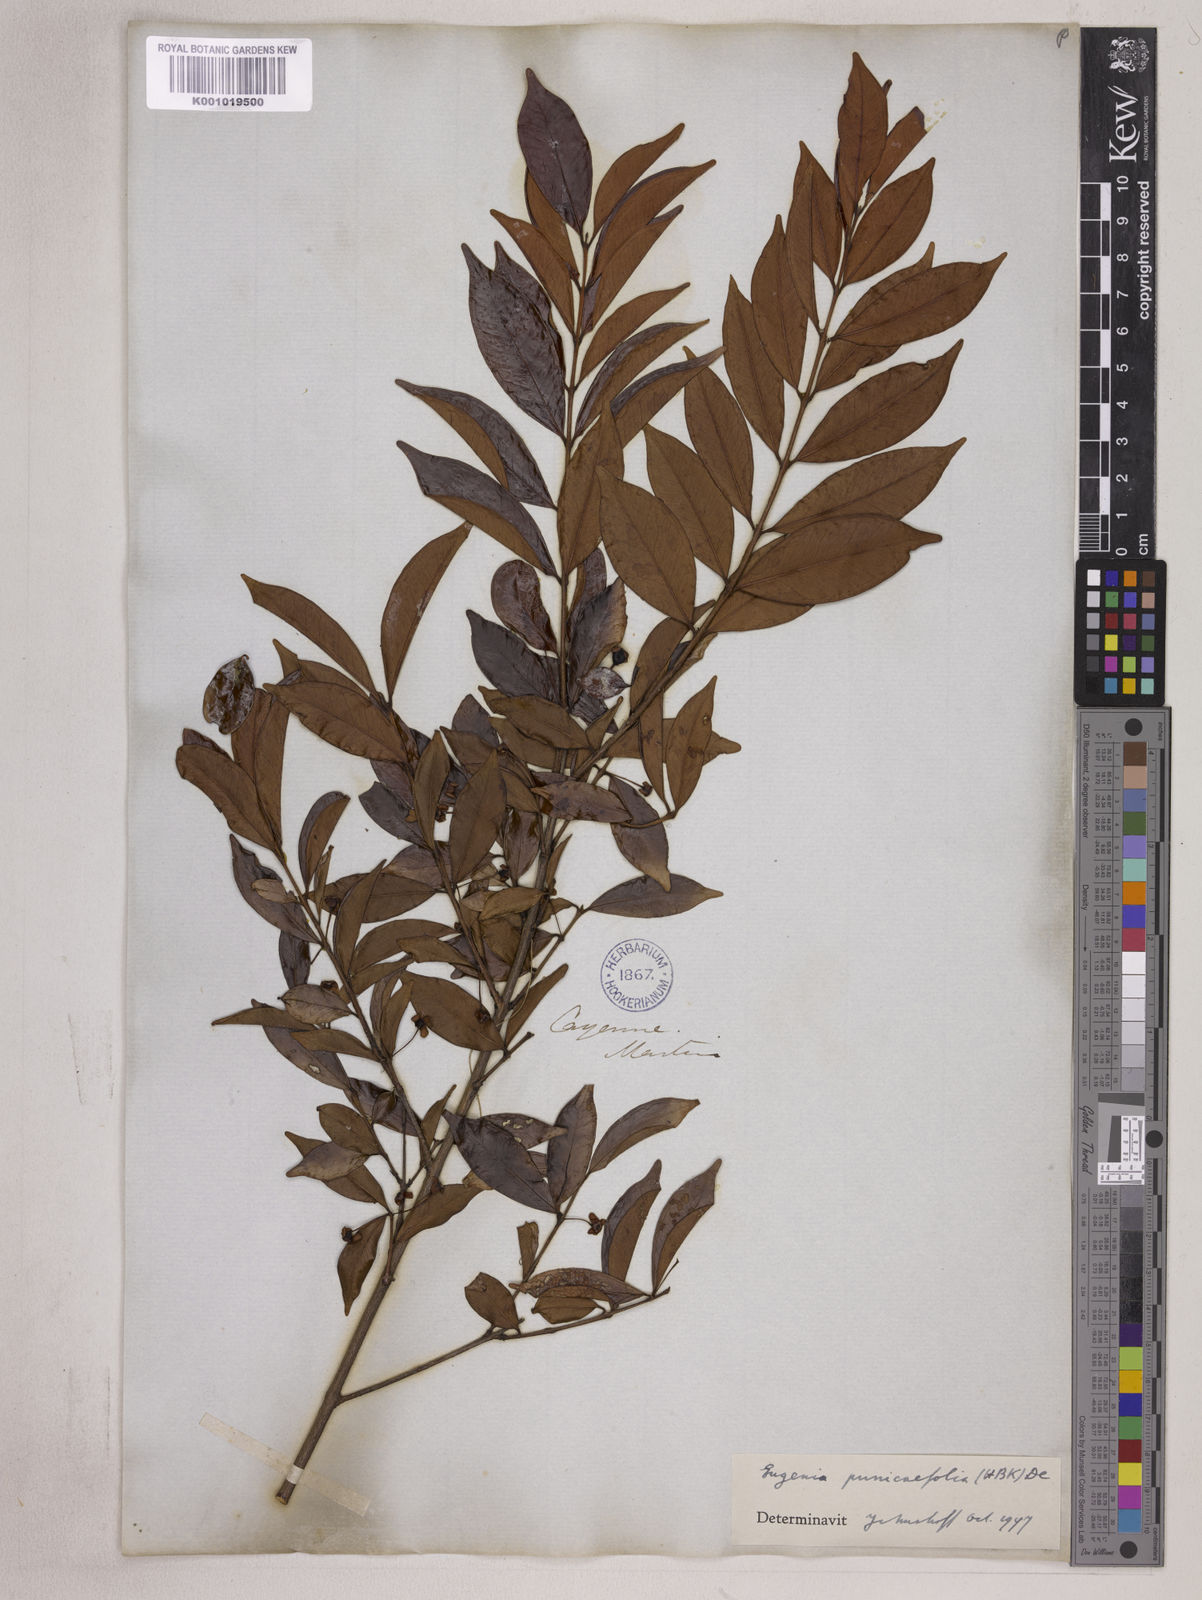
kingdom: Plantae
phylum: Tracheophyta
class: Magnoliopsida
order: Myrtales
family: Myrtaceae
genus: Eugenia
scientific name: Eugenia punicifolia
